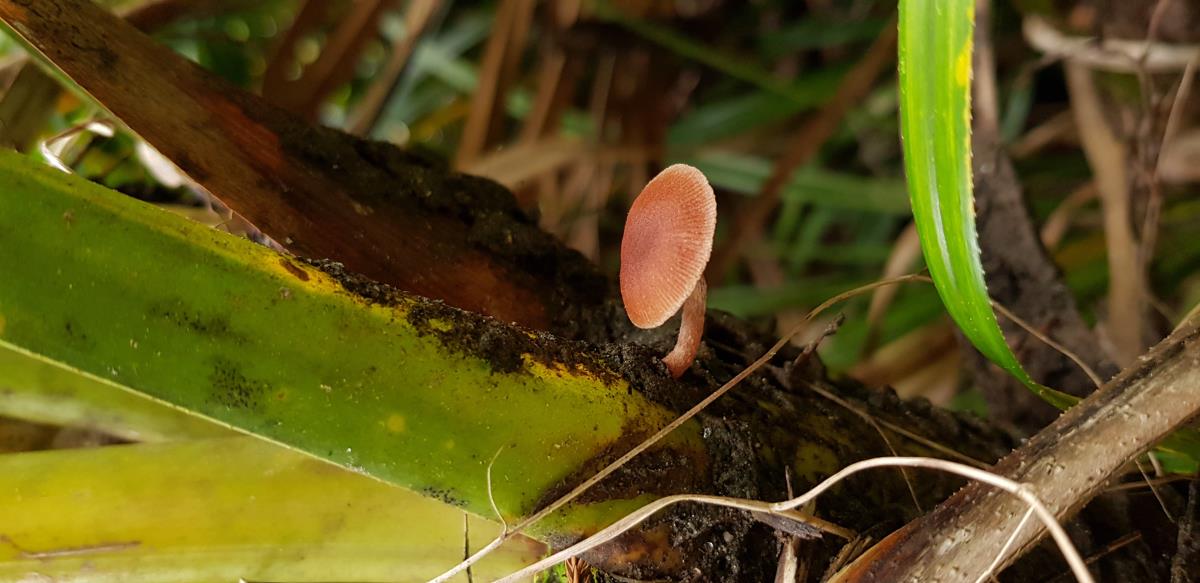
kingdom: Fungi
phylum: Basidiomycota
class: Agaricomycetes
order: Agaricales
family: Tubariaceae
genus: Tubaria
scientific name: Tubaria
